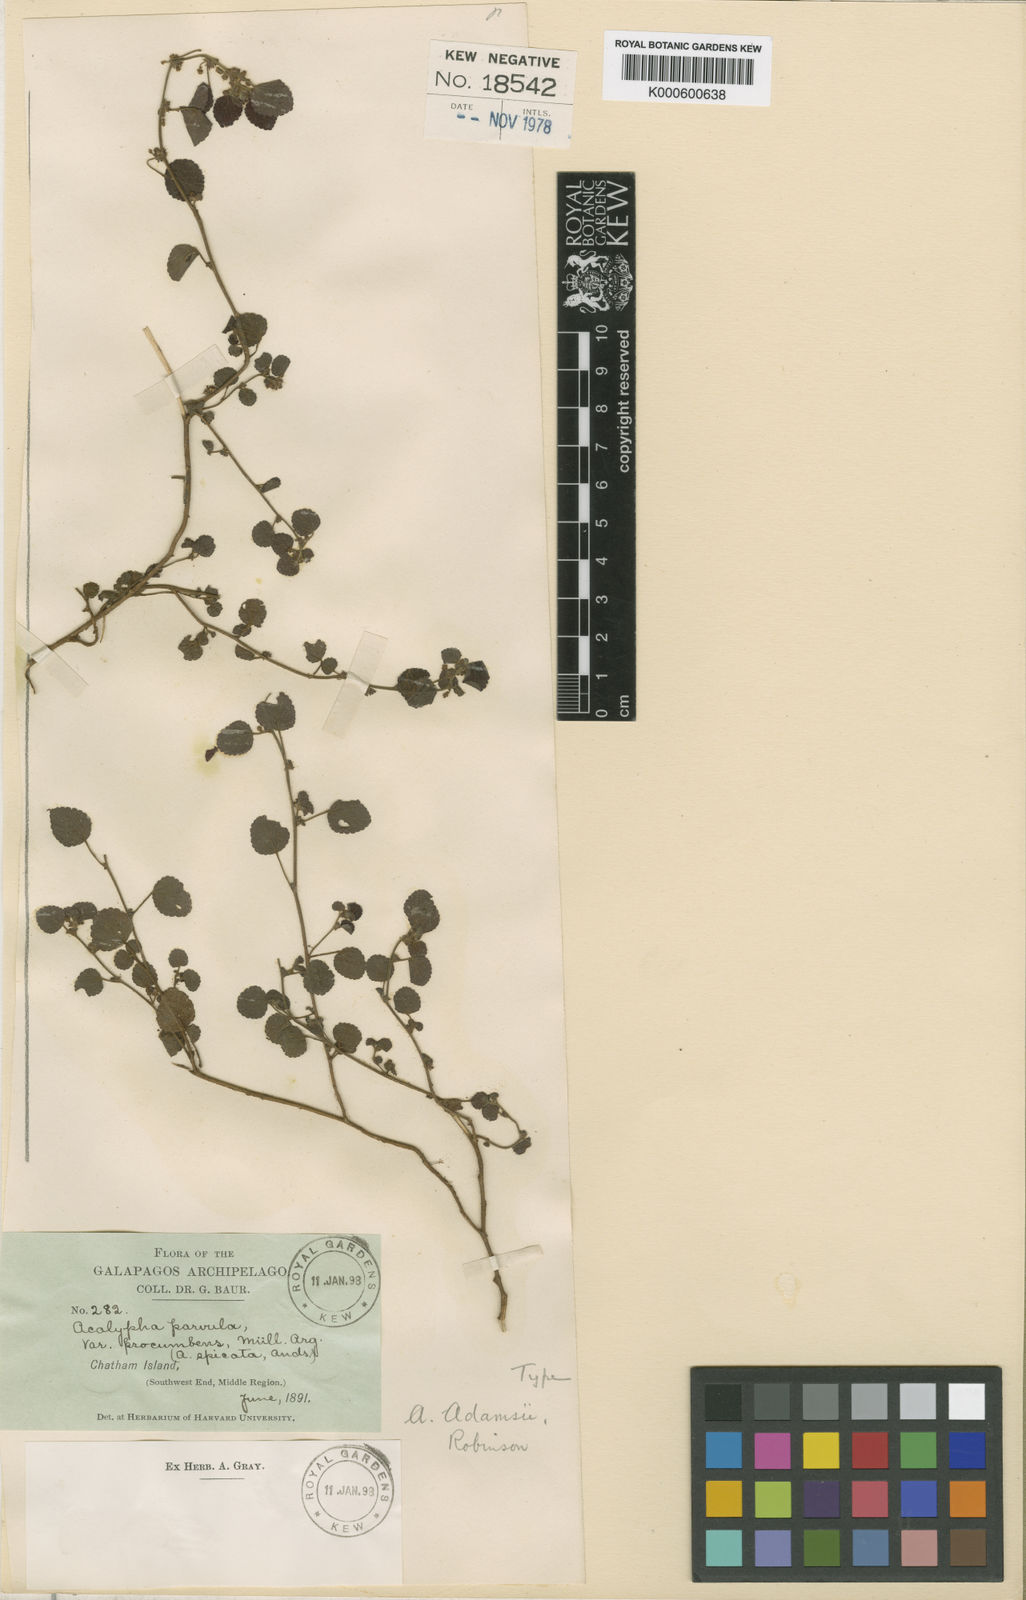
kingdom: Plantae
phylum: Tracheophyta
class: Magnoliopsida
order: Malpighiales
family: Euphorbiaceae
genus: Acalypha
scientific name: Acalypha parvula
